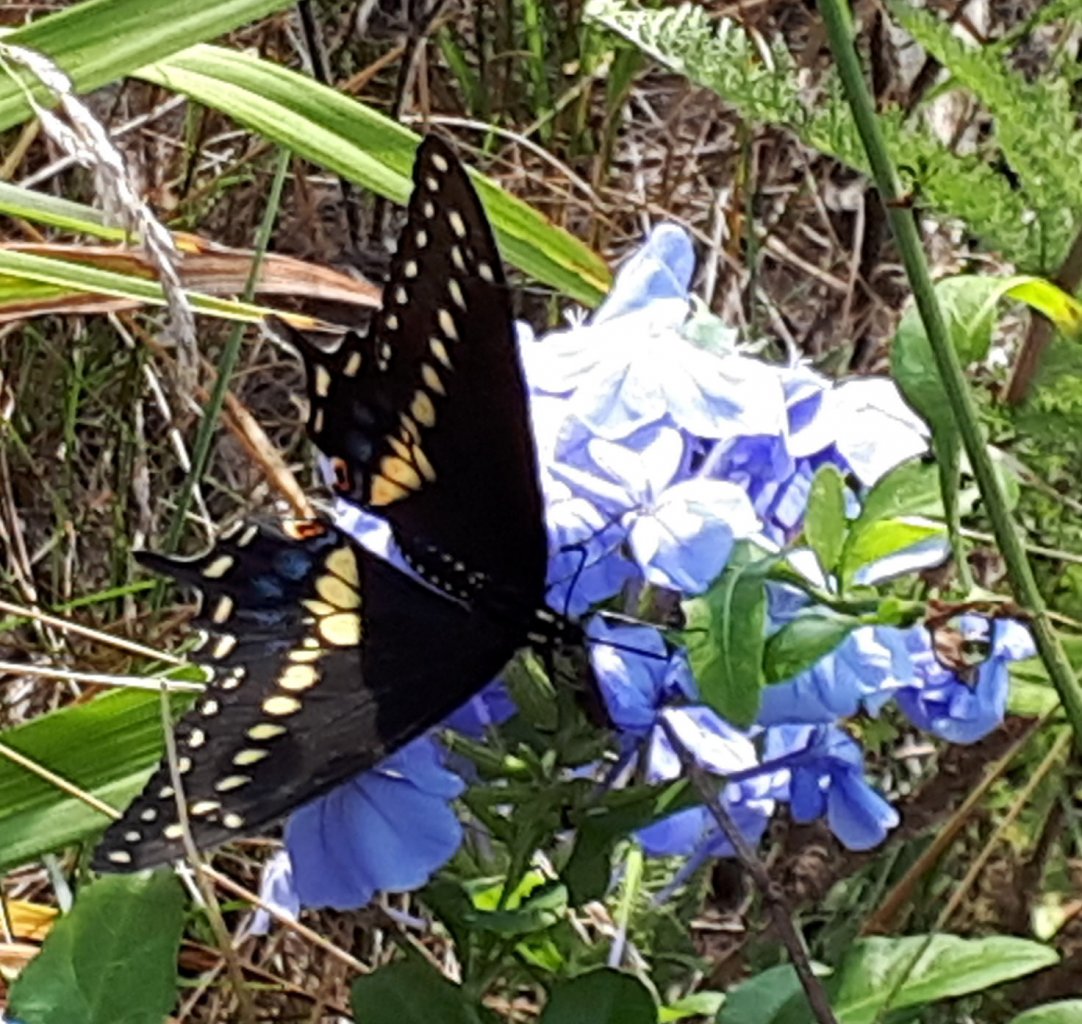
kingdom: Animalia
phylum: Arthropoda
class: Insecta
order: Lepidoptera
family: Papilionidae
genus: Papilio
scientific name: Papilio polyxenes
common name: Black Swallowtail
